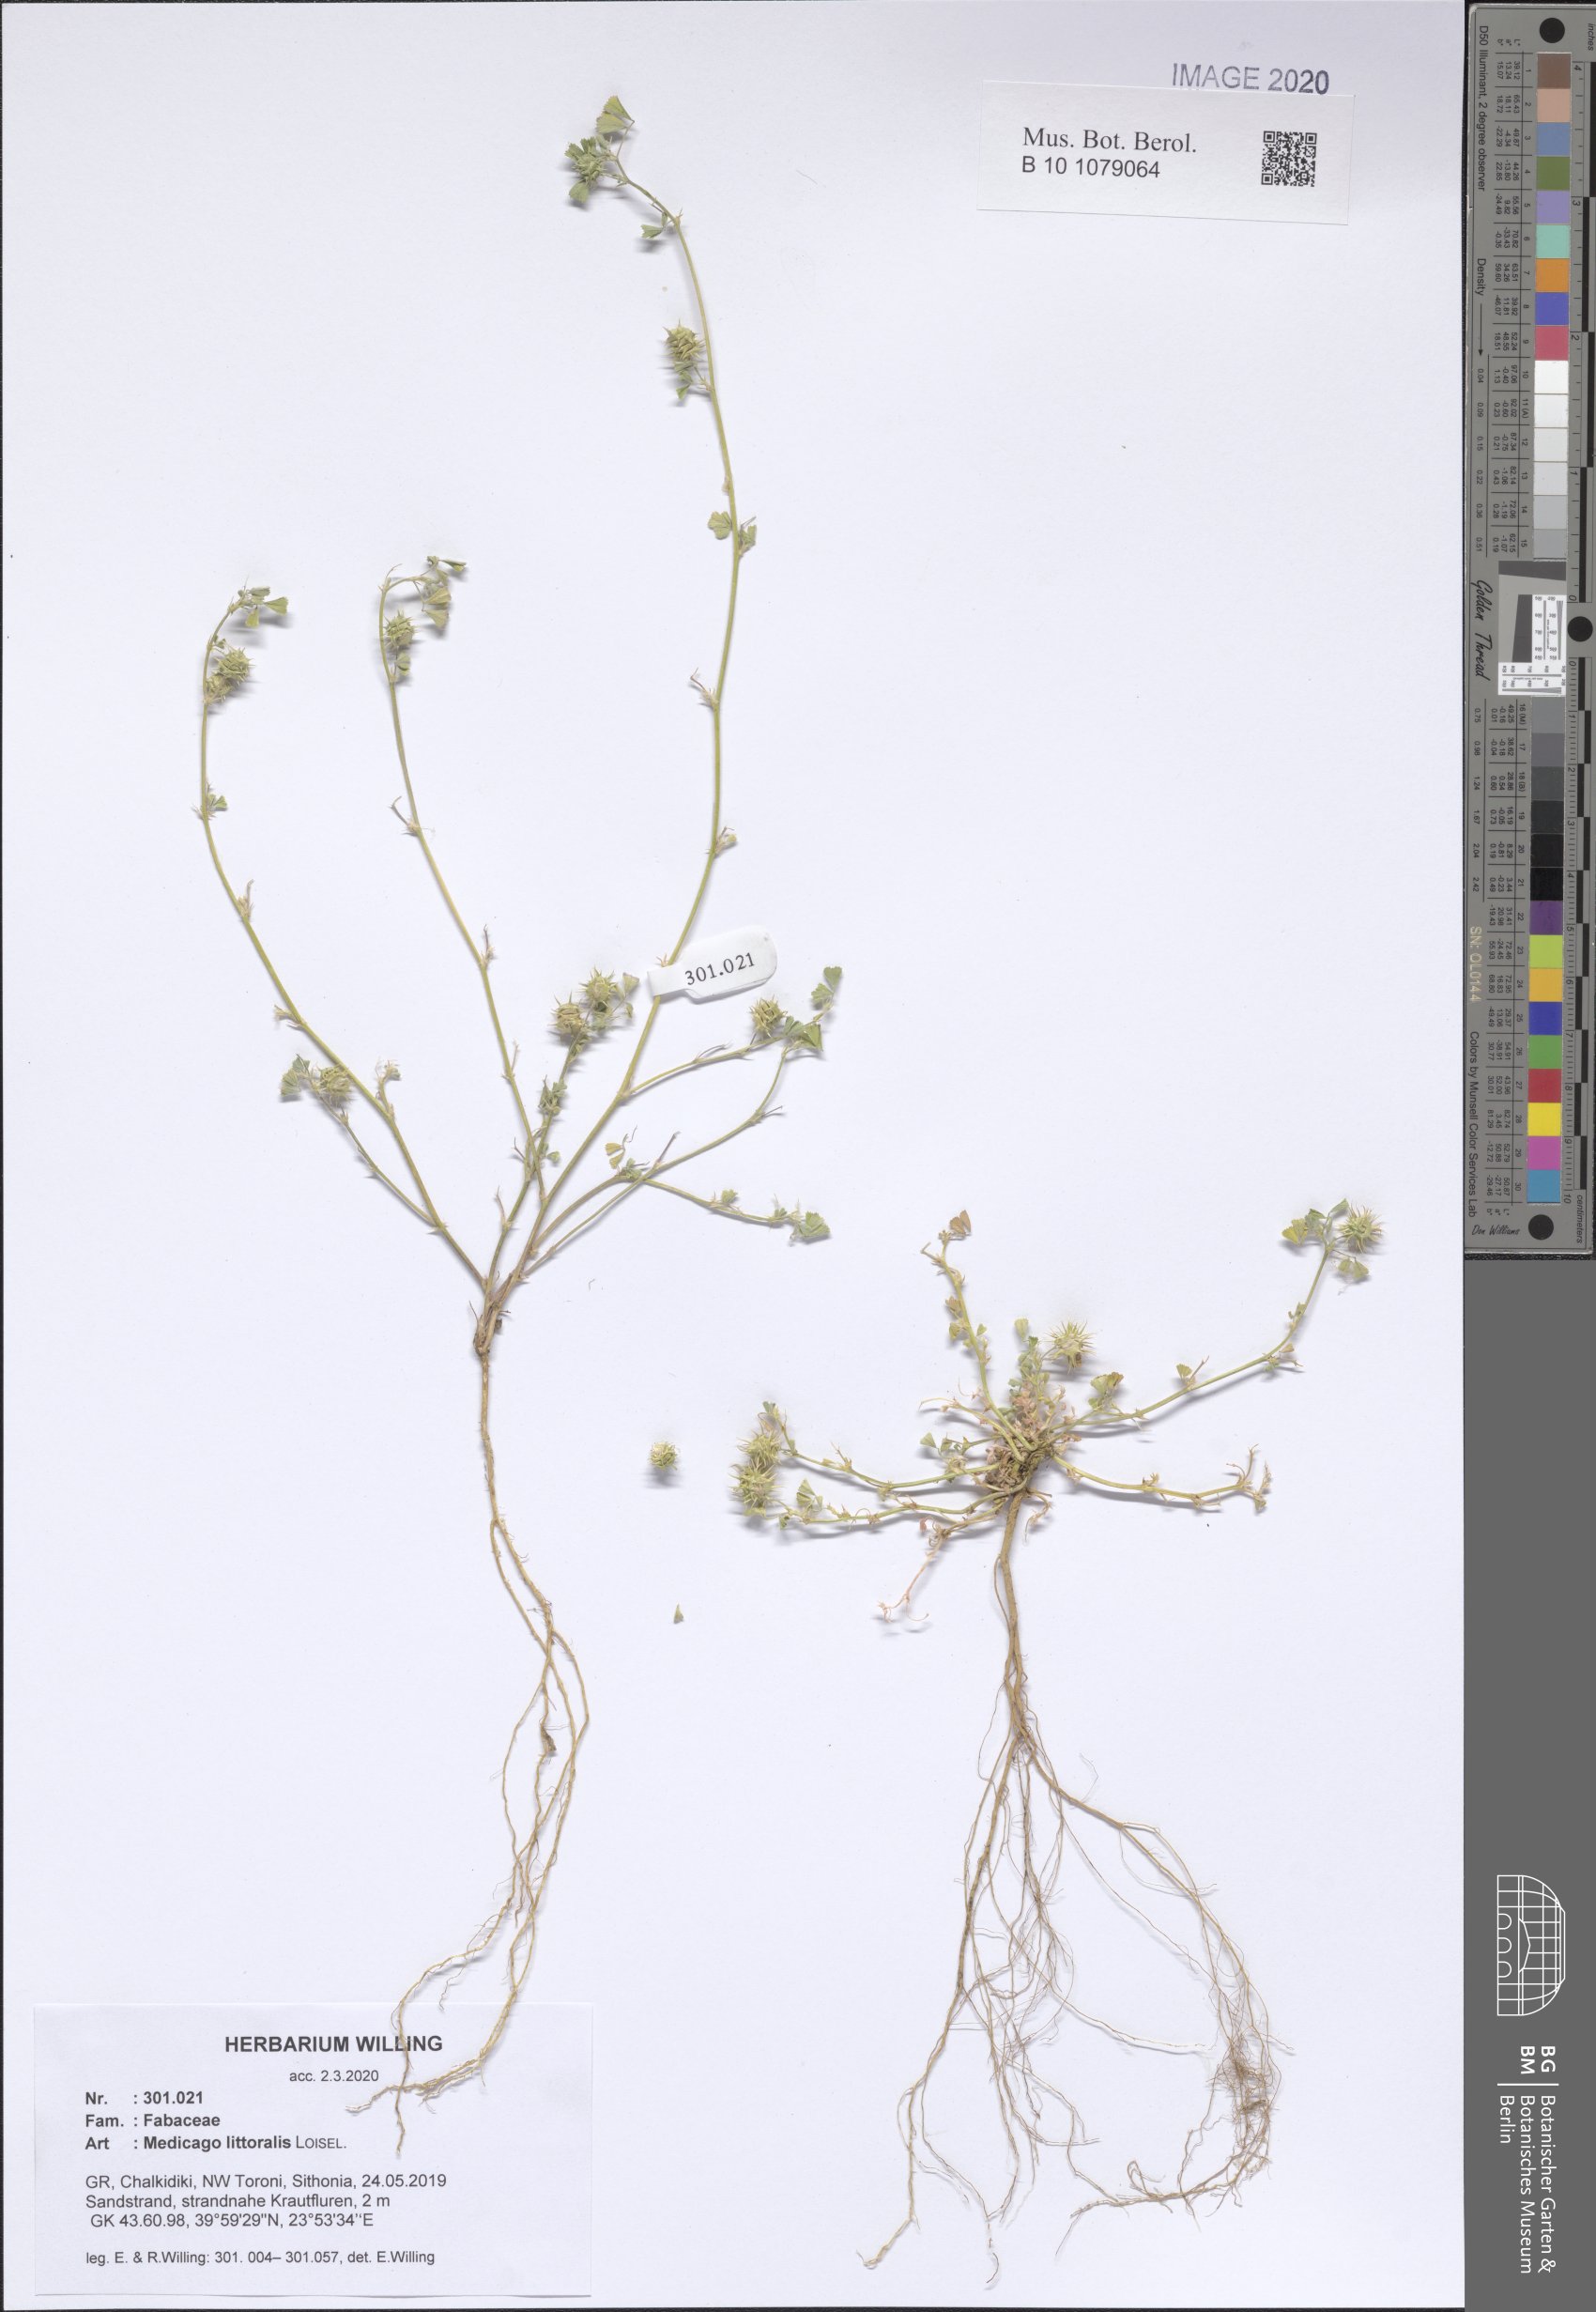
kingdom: Plantae
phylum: Tracheophyta
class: Magnoliopsida
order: Fabales
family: Fabaceae
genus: Medicago
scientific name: Medicago littoralis
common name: Shore medick
